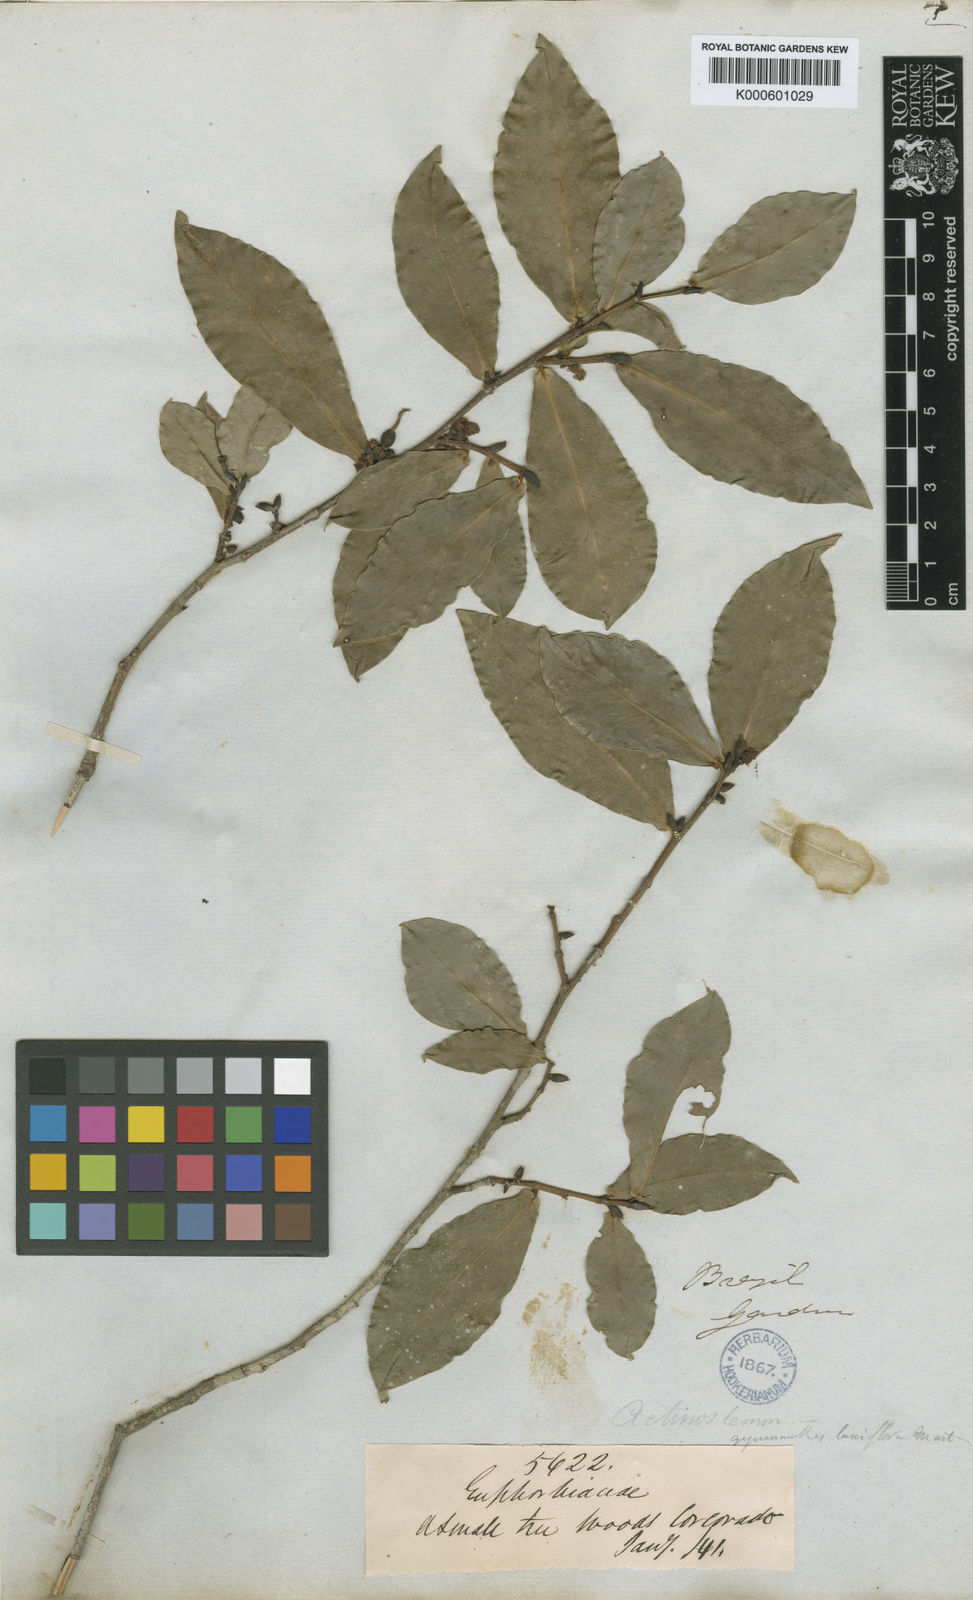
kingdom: Plantae
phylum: Tracheophyta
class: Magnoliopsida
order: Malpighiales
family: Euphorbiaceae
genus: Actinostemon
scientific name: Actinostemon
